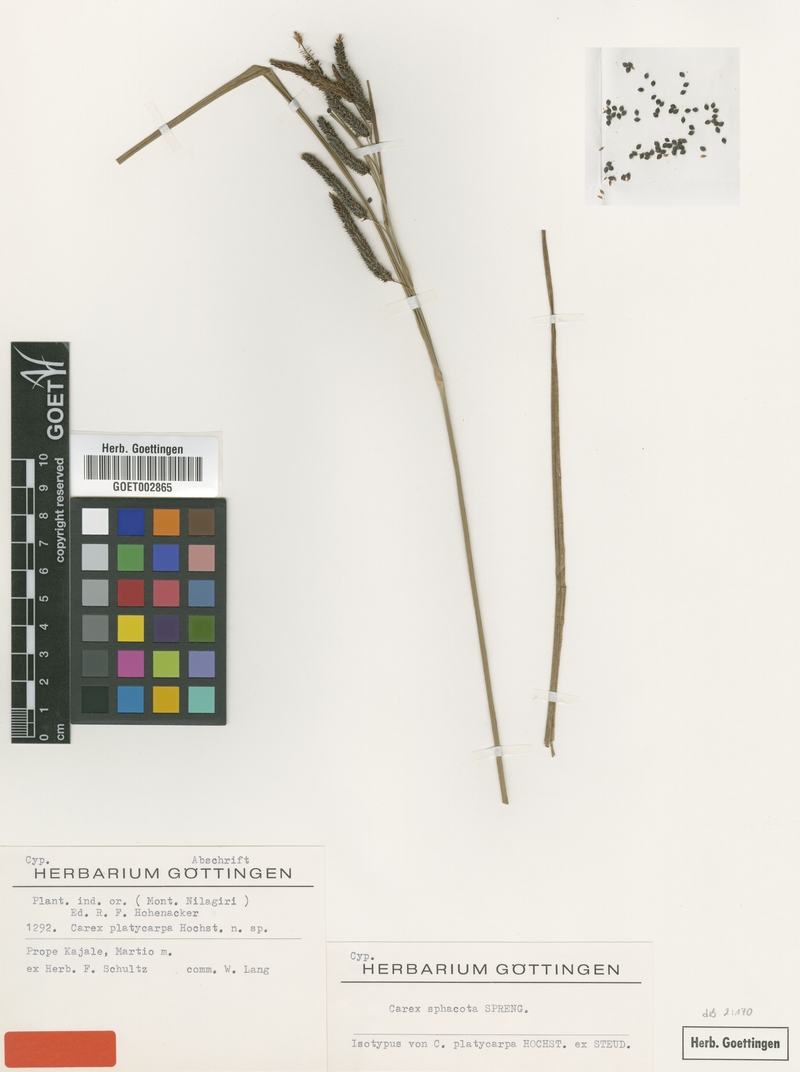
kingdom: Plantae
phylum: Tracheophyta
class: Liliopsida
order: Poales
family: Cyperaceae
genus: Carex
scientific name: Carex
